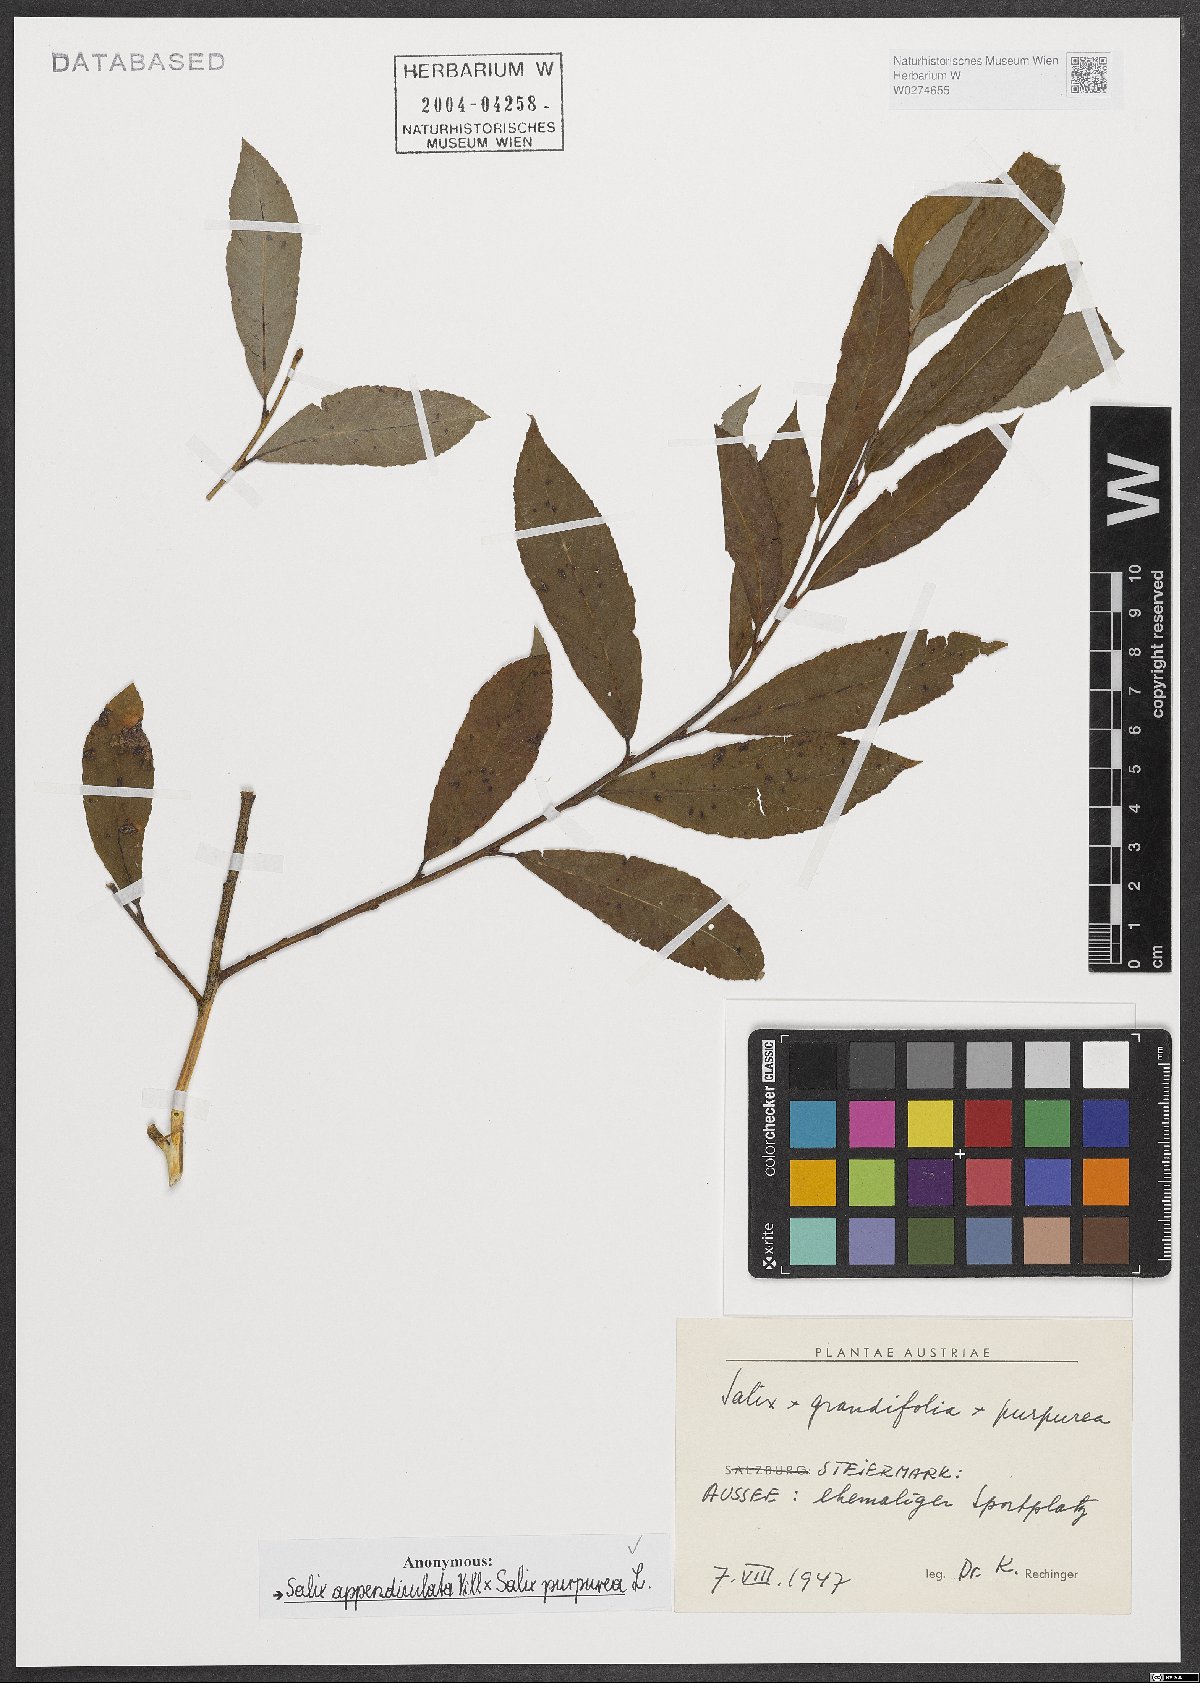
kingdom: Plantae
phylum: Tracheophyta
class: Magnoliopsida
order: Malpighiales
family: Salicaceae
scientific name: Salicaceae
